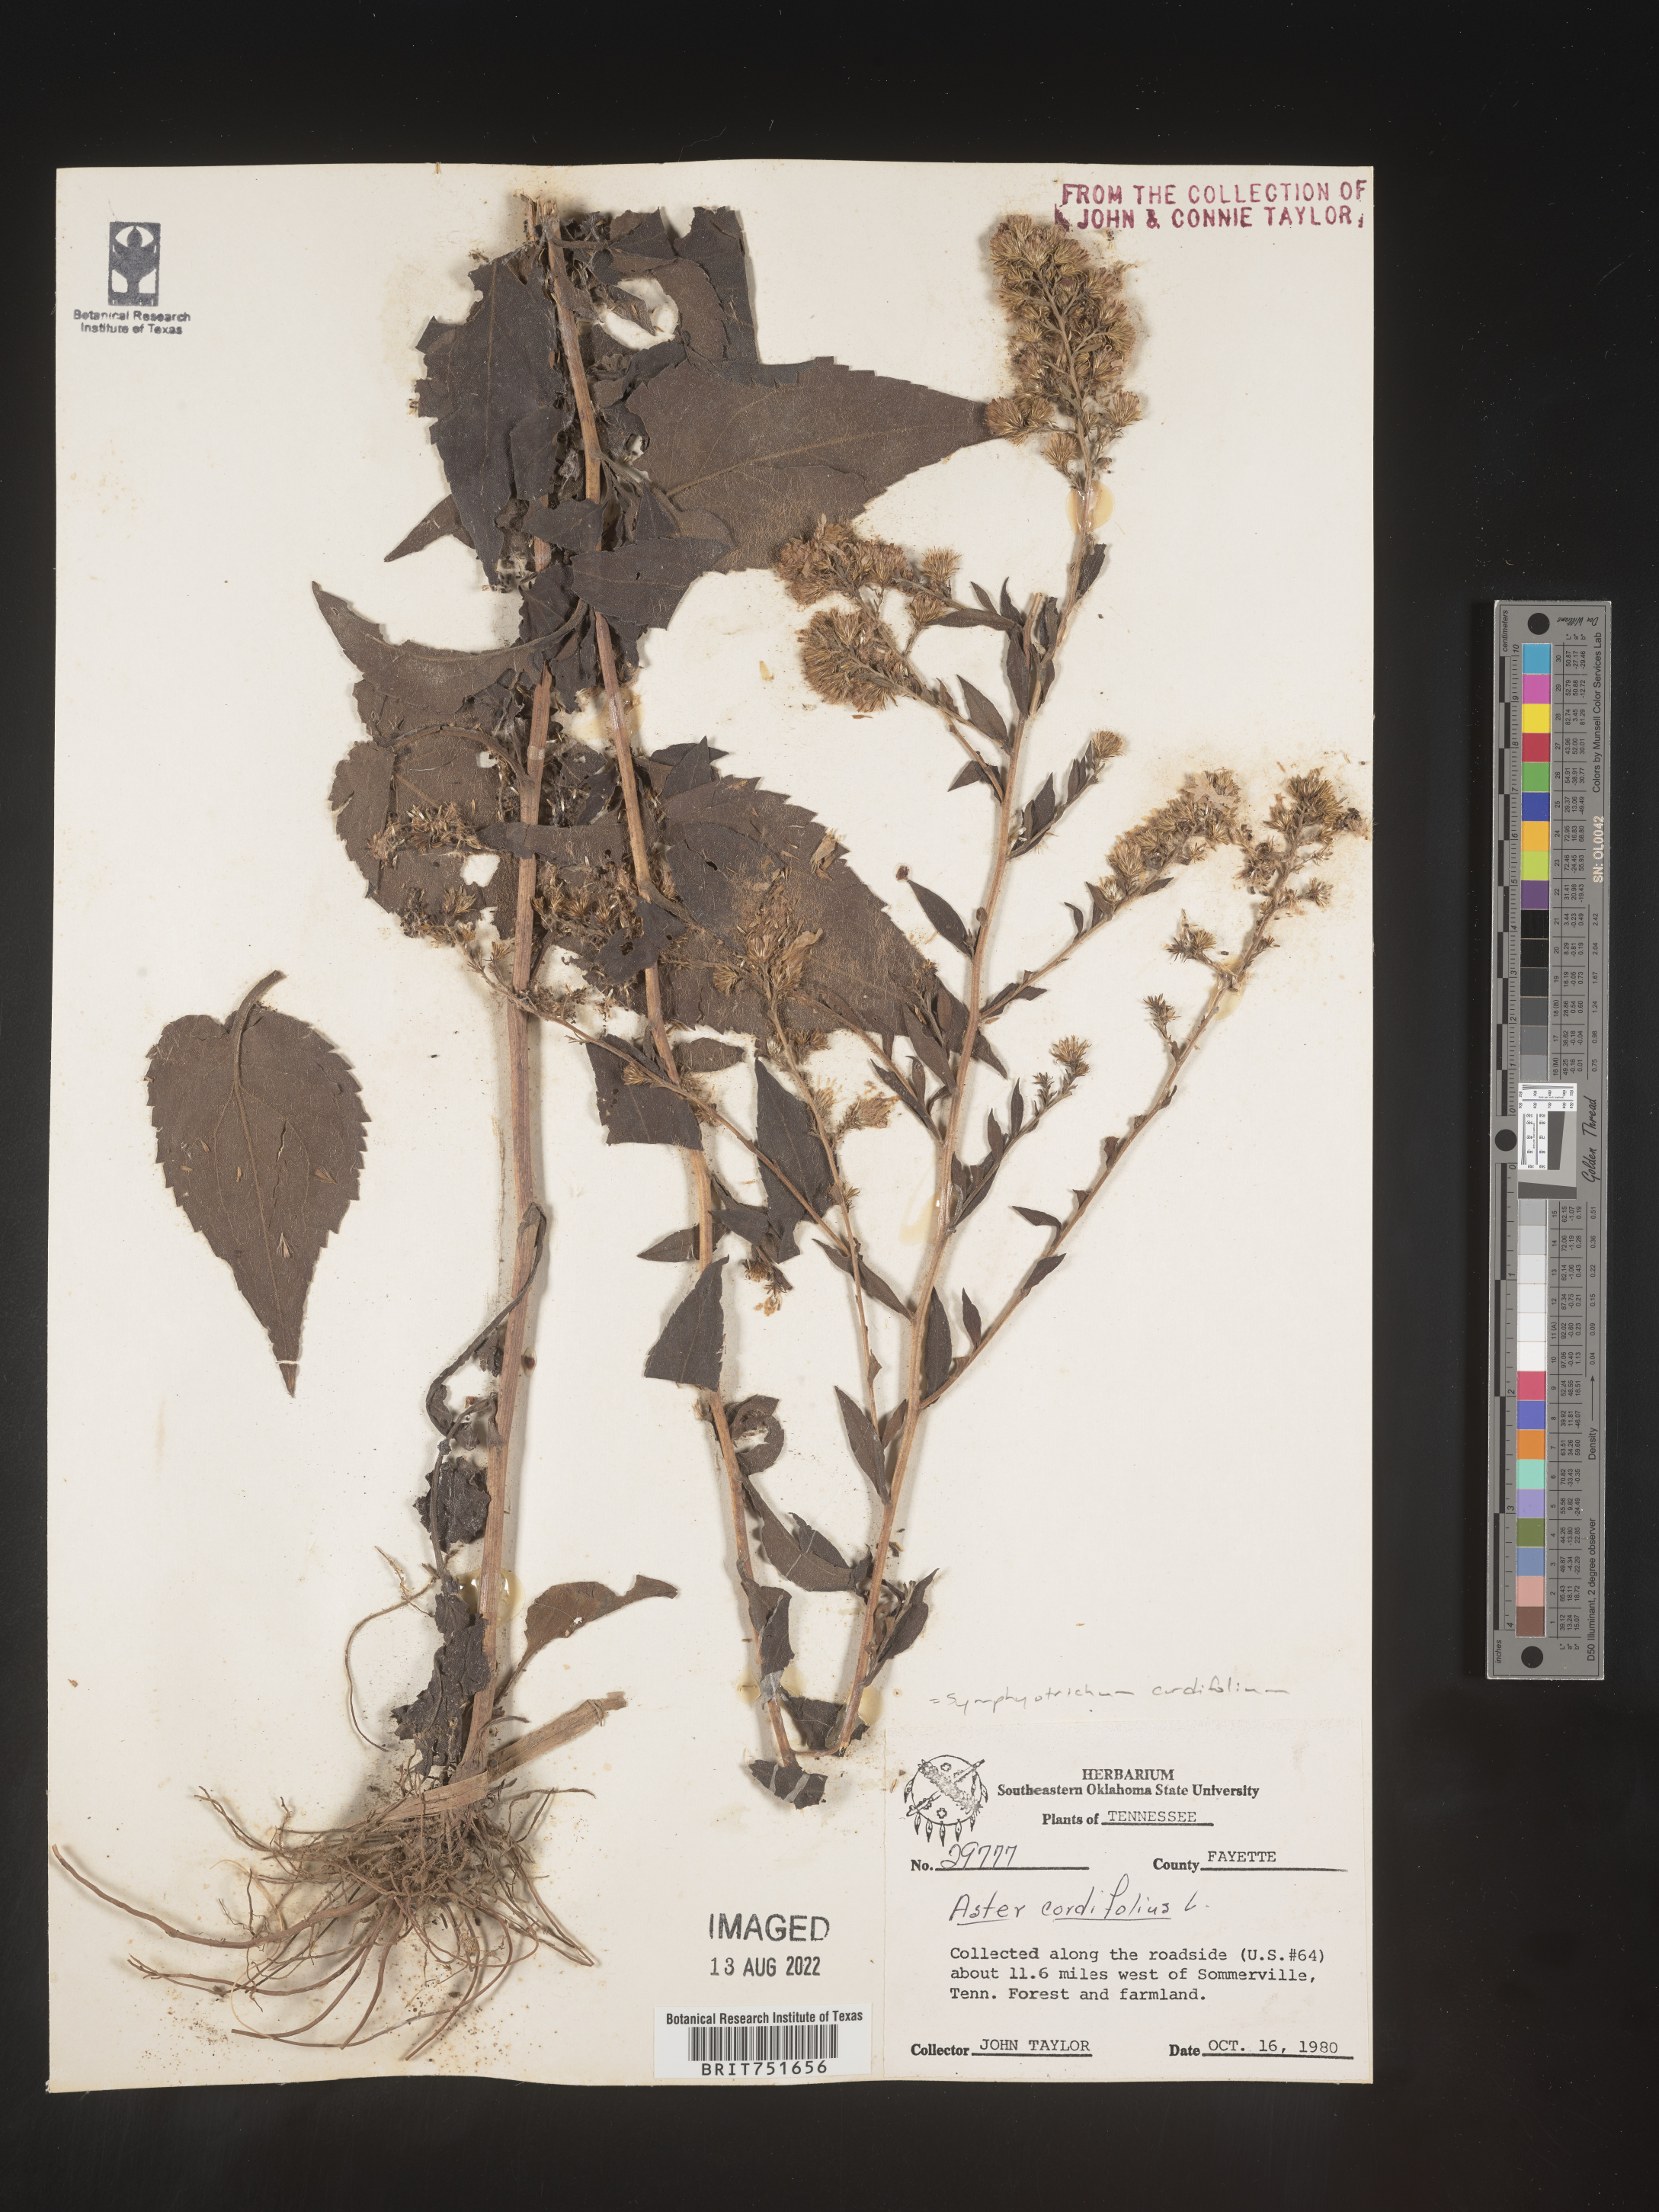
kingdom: Plantae
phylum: Tracheophyta
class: Magnoliopsida
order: Asterales
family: Asteraceae
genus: Symphyotrichum
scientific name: Symphyotrichum cordifolium
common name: Beeweed
